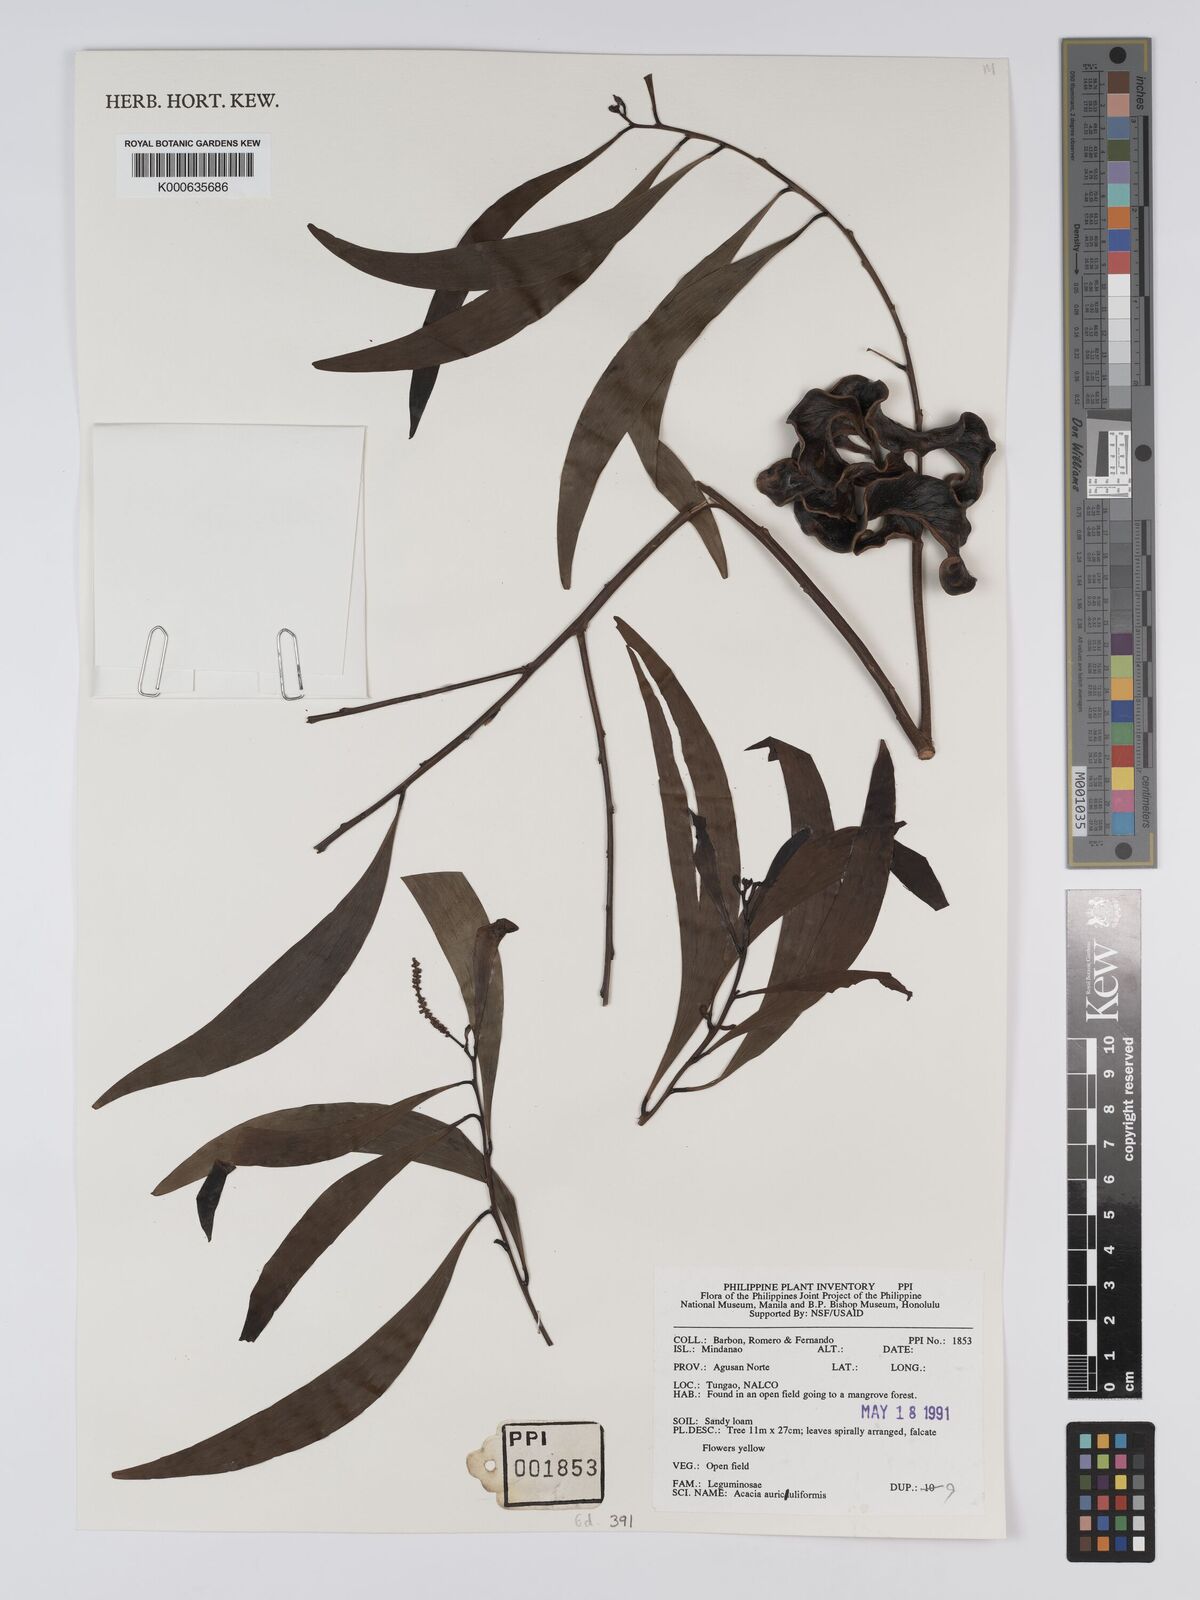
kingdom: Plantae
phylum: Tracheophyta
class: Magnoliopsida
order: Fabales
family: Fabaceae
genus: Acacia
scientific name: Acacia auriculiformis
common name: Earleaf acacia
